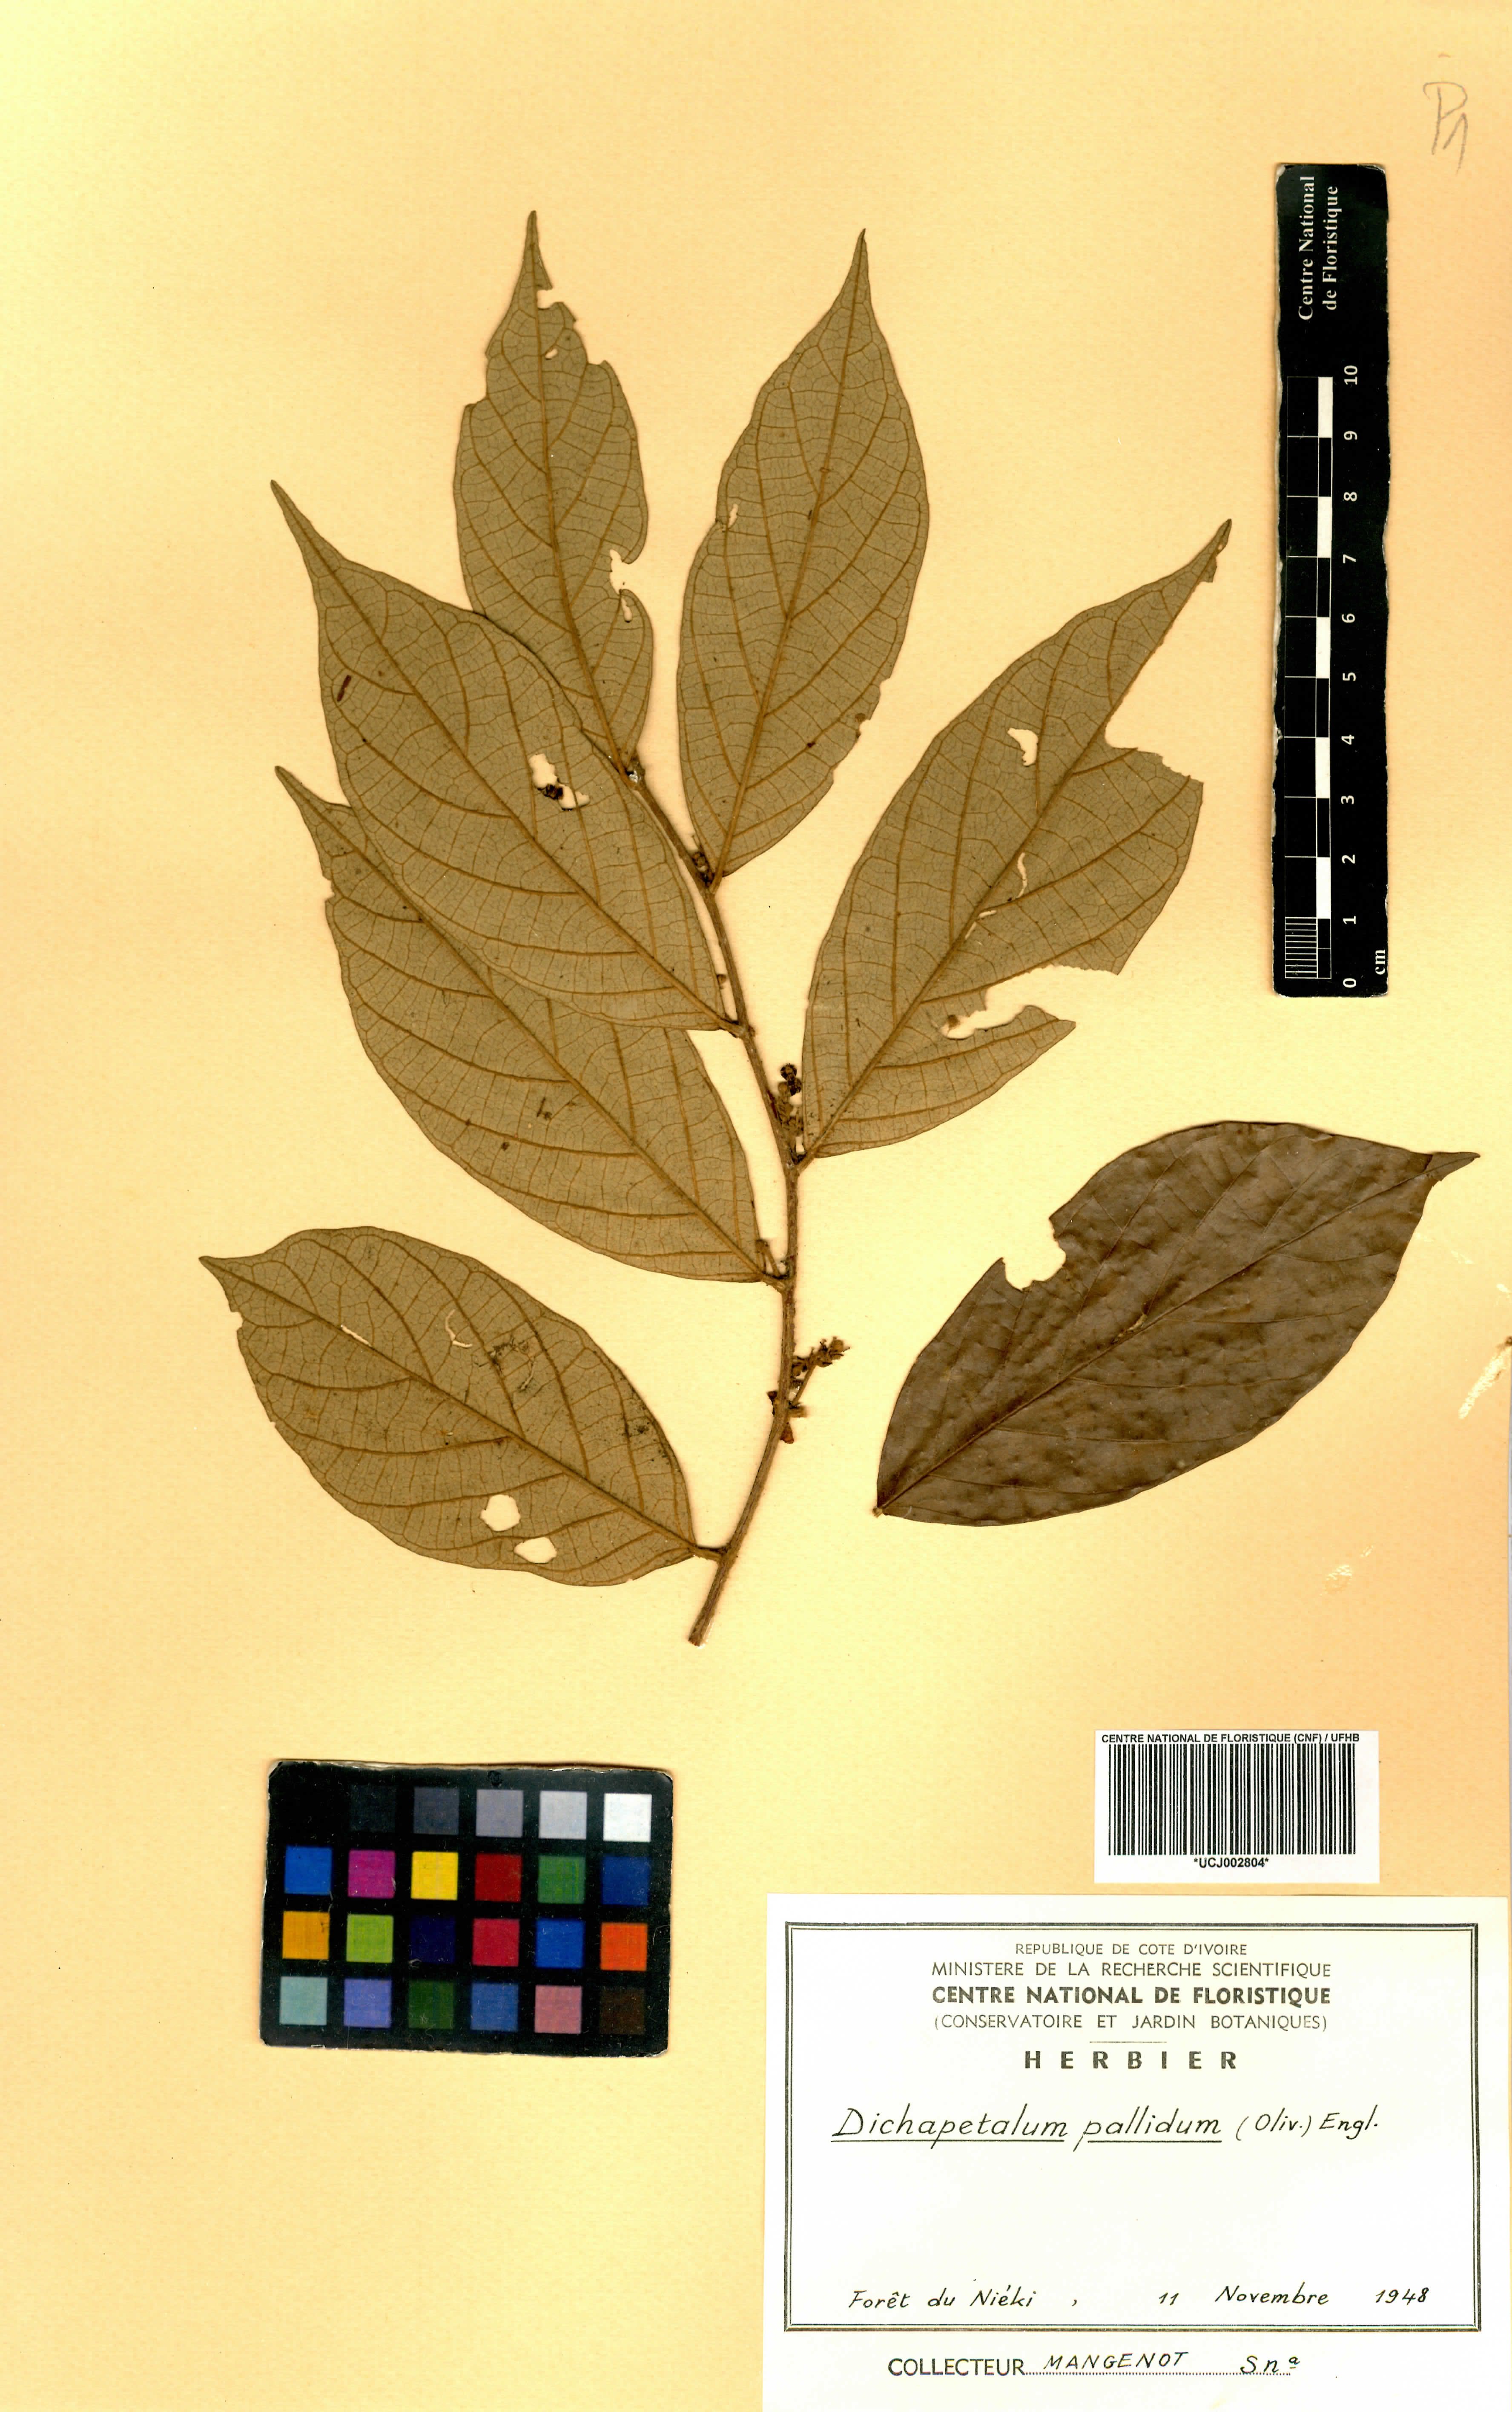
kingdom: Plantae
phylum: Tracheophyta
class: Magnoliopsida
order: Malpighiales
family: Dichapetalaceae
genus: Dichapetalum
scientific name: Dichapetalum pallidum
